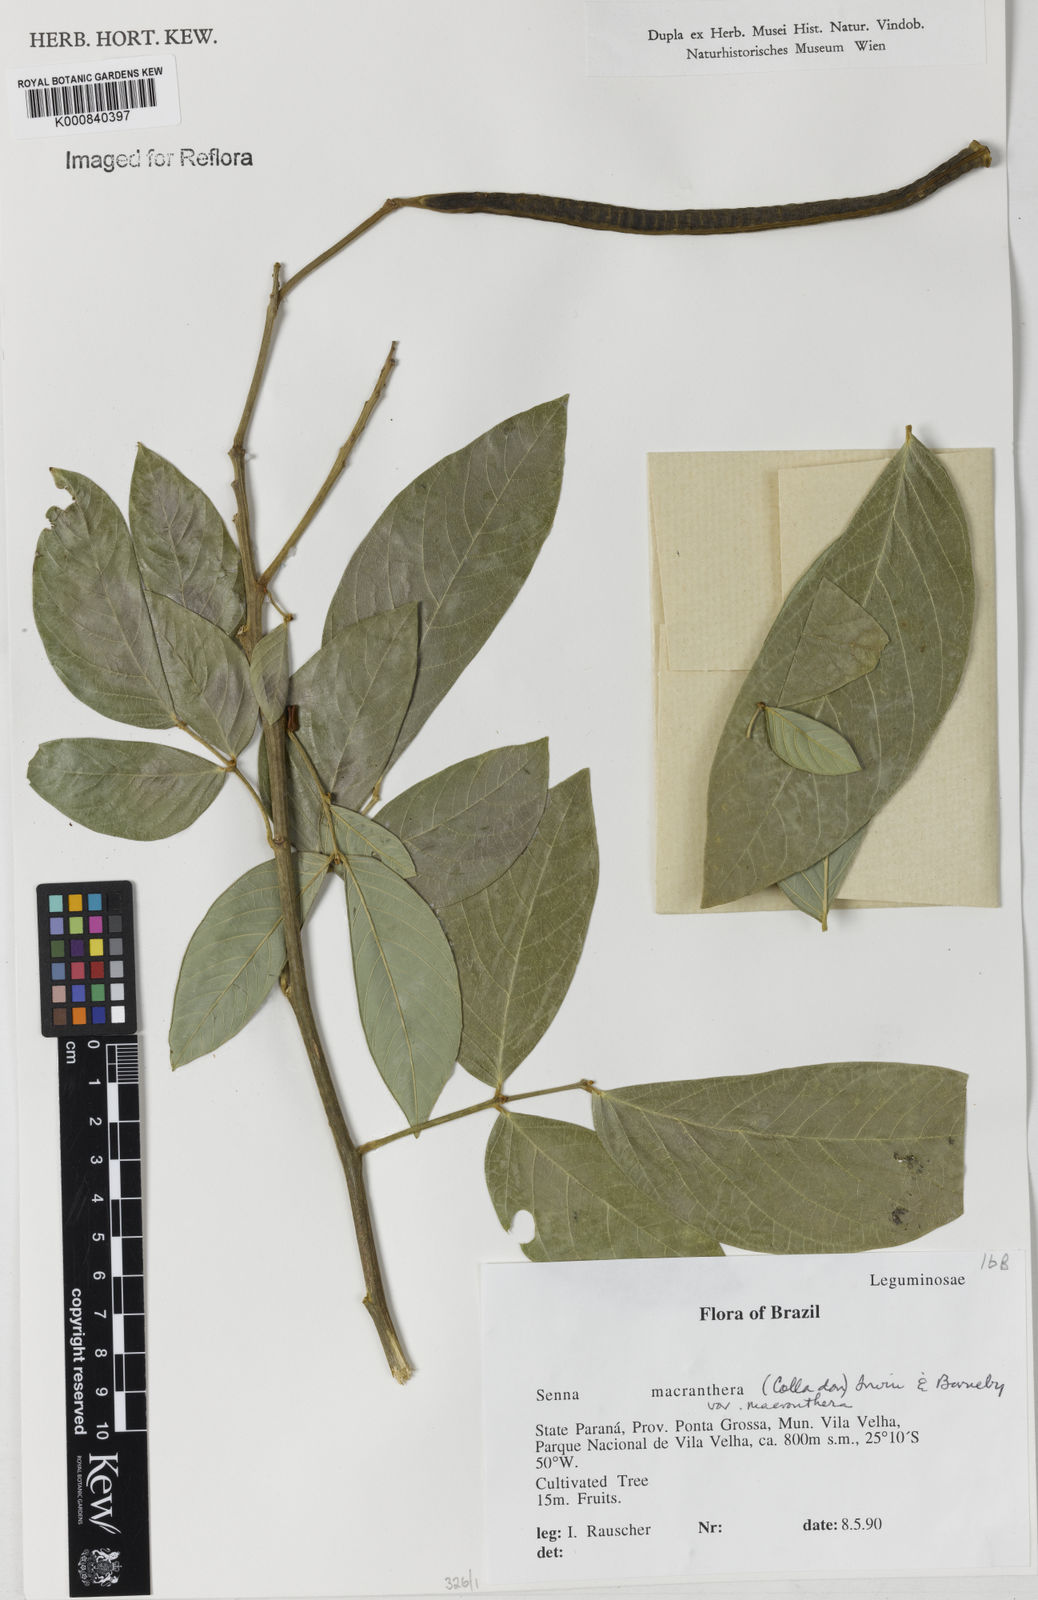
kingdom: Plantae
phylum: Tracheophyta
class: Magnoliopsida
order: Fabales
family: Fabaceae
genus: Senna
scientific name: Senna macranthera
